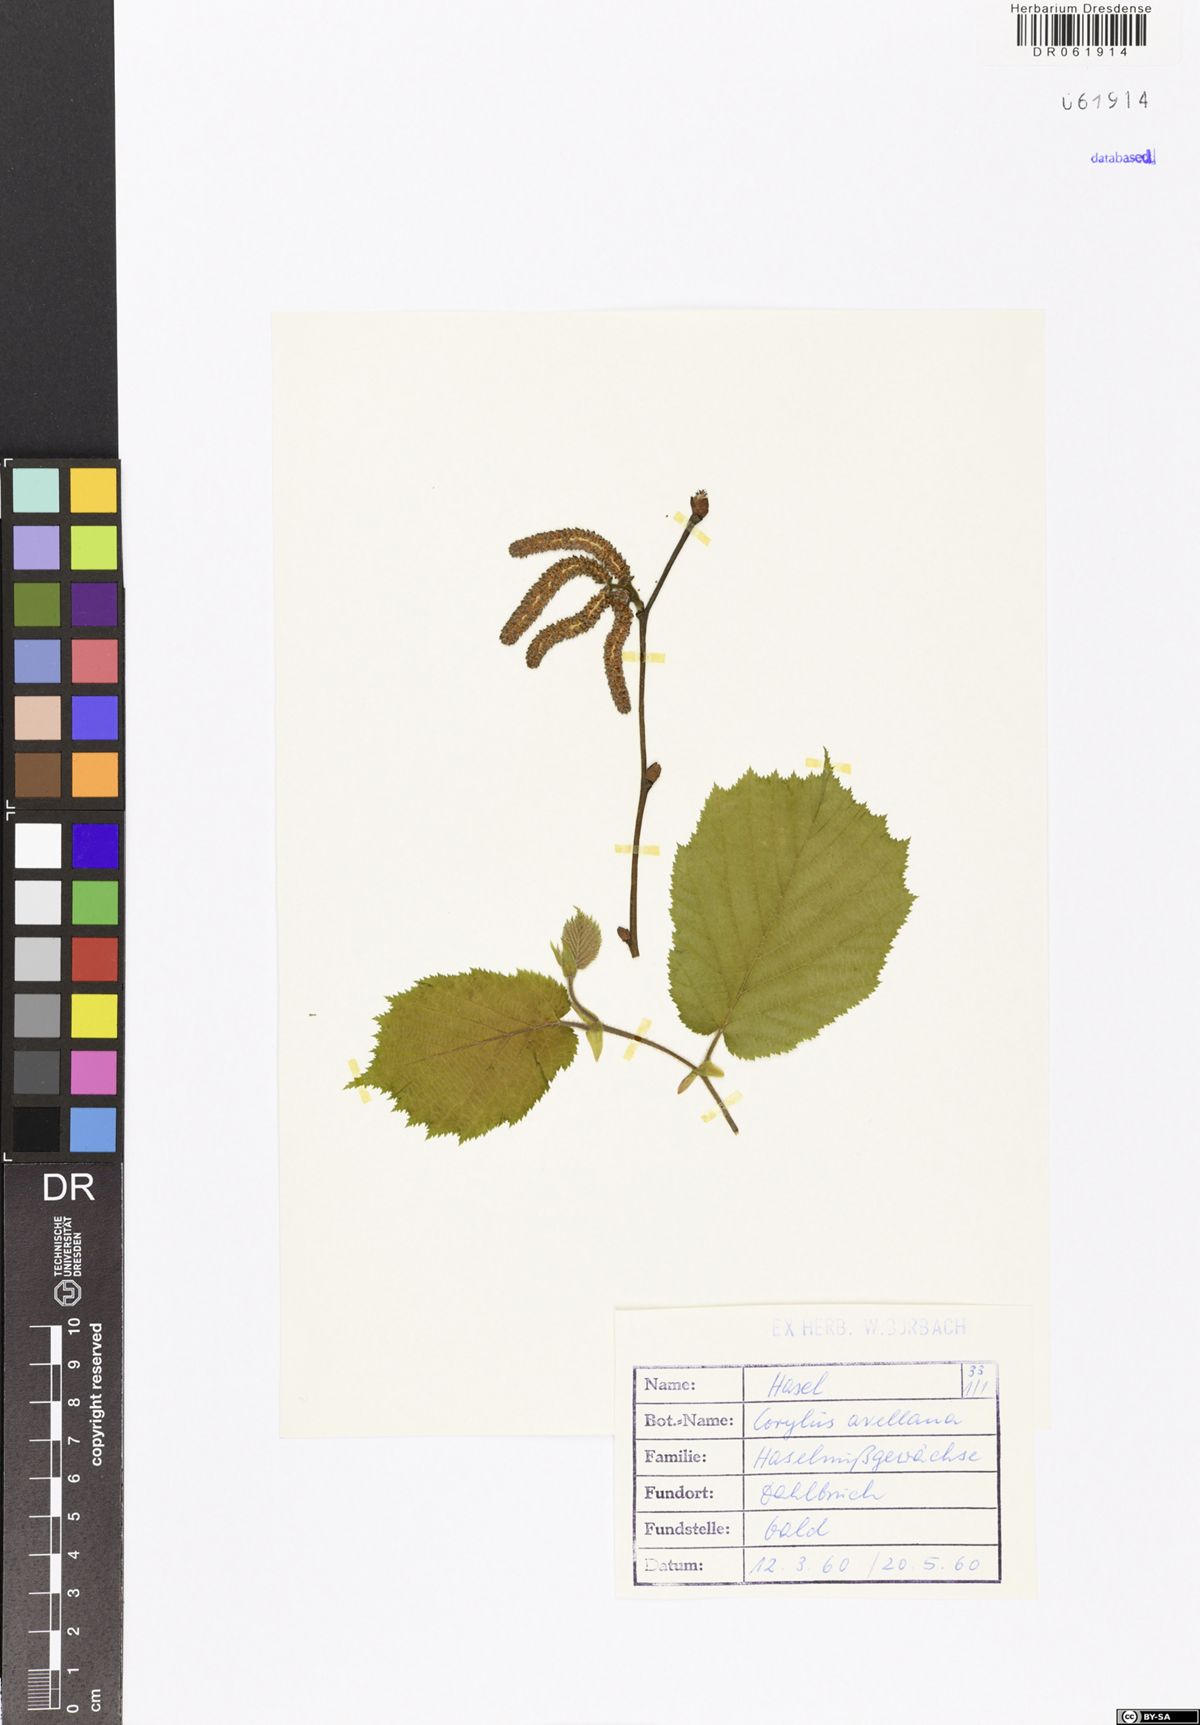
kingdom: Plantae
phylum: Tracheophyta
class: Magnoliopsida
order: Fagales
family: Betulaceae
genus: Corylus
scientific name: Corylus avellana
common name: European hazel
